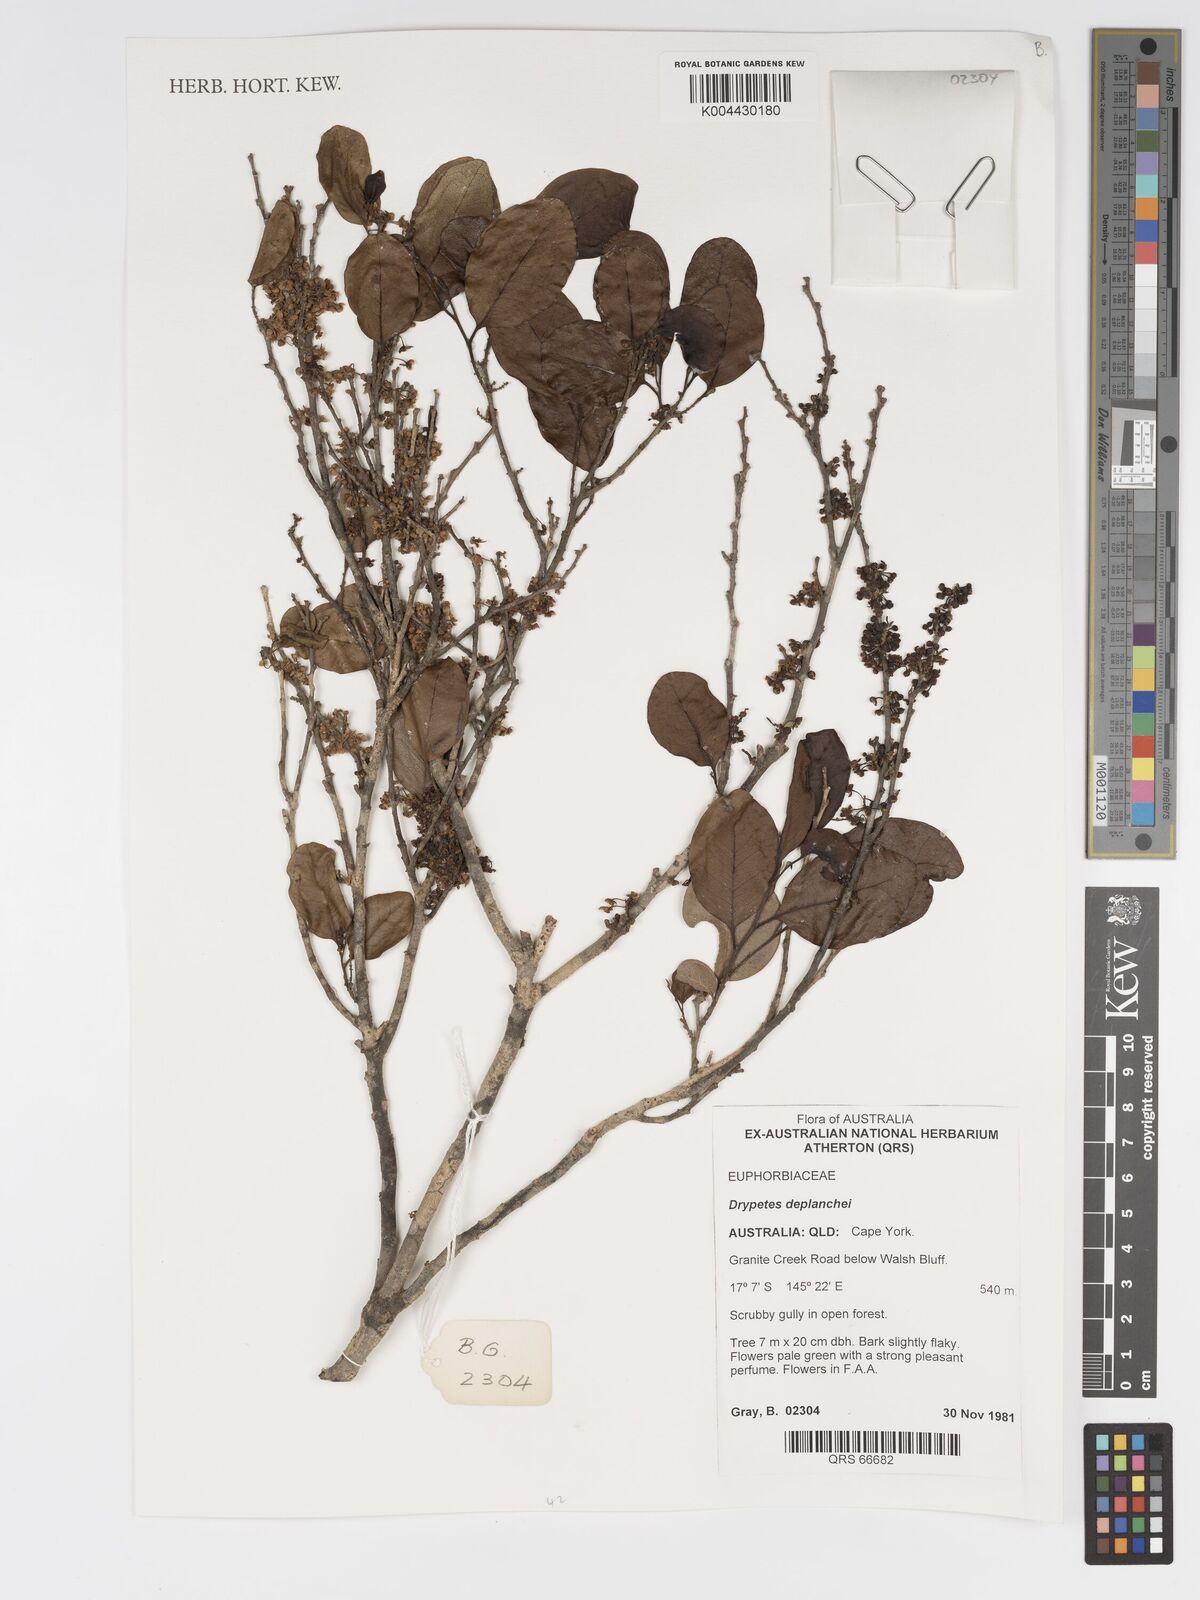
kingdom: Plantae
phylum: Tracheophyta
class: Magnoliopsida
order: Malpighiales
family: Putranjivaceae
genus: Drypetes
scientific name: Drypetes deplanchei
